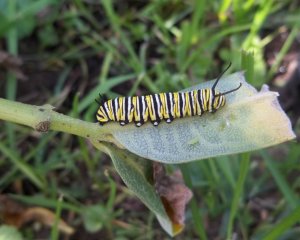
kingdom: Animalia
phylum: Arthropoda
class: Insecta
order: Lepidoptera
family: Nymphalidae
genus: Danaus
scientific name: Danaus plexippus
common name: Monarch
